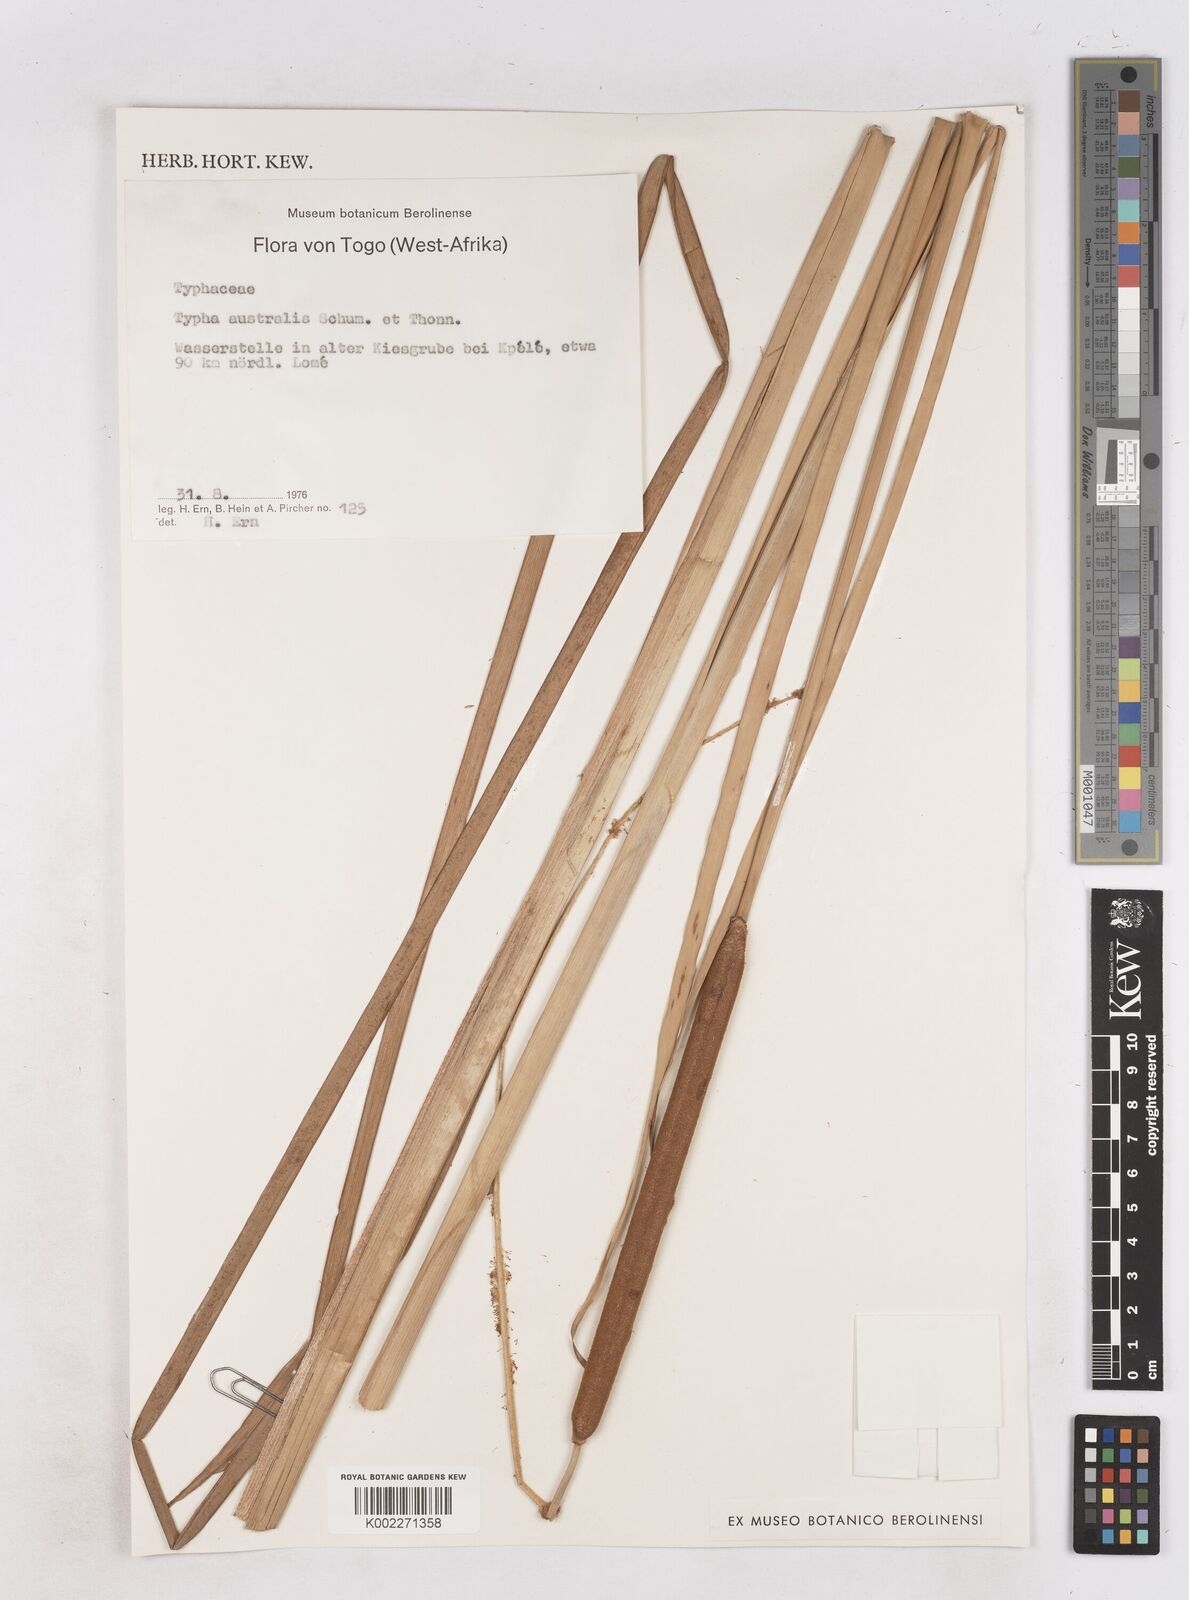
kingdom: Plantae
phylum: Tracheophyta
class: Liliopsida
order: Poales
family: Typhaceae
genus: Typha
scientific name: Typha domingensis
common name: Southern cattail
